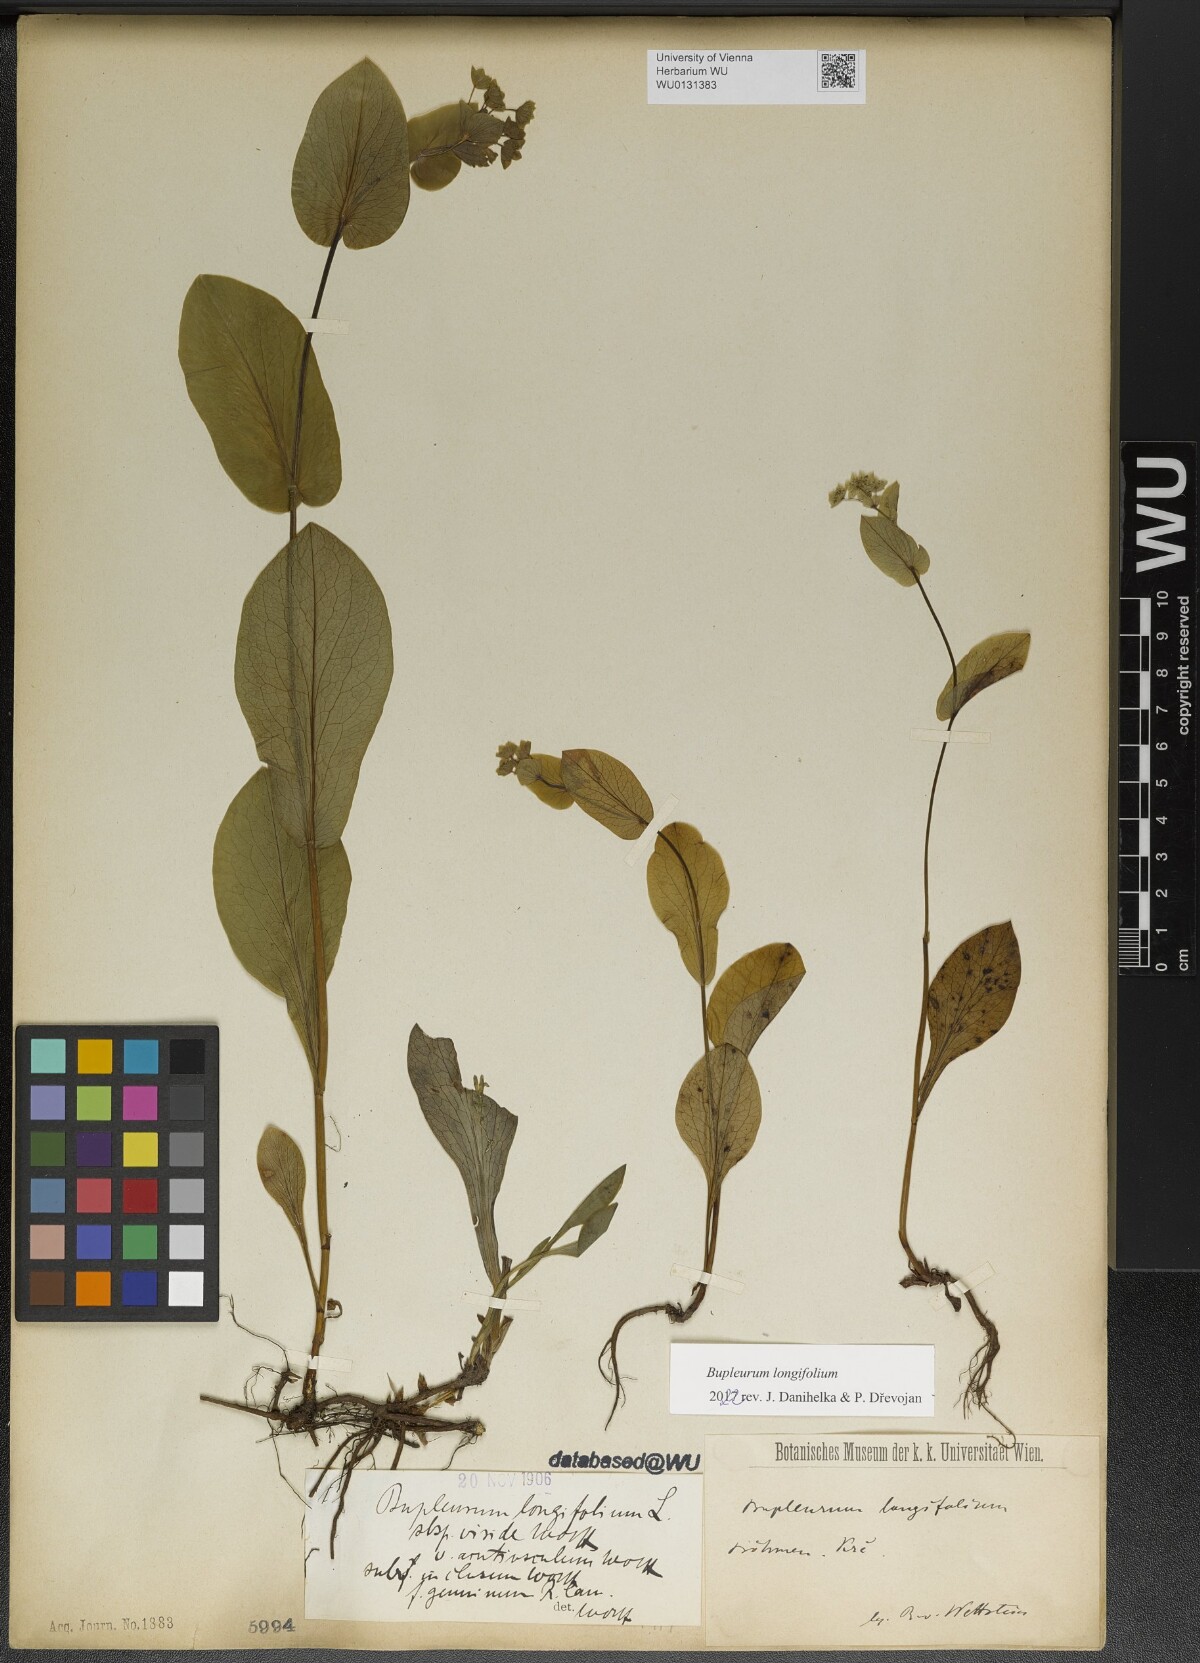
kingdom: Plantae
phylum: Tracheophyta
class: Magnoliopsida
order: Apiales
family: Apiaceae
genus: Bupleurum
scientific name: Bupleurum longifolium
